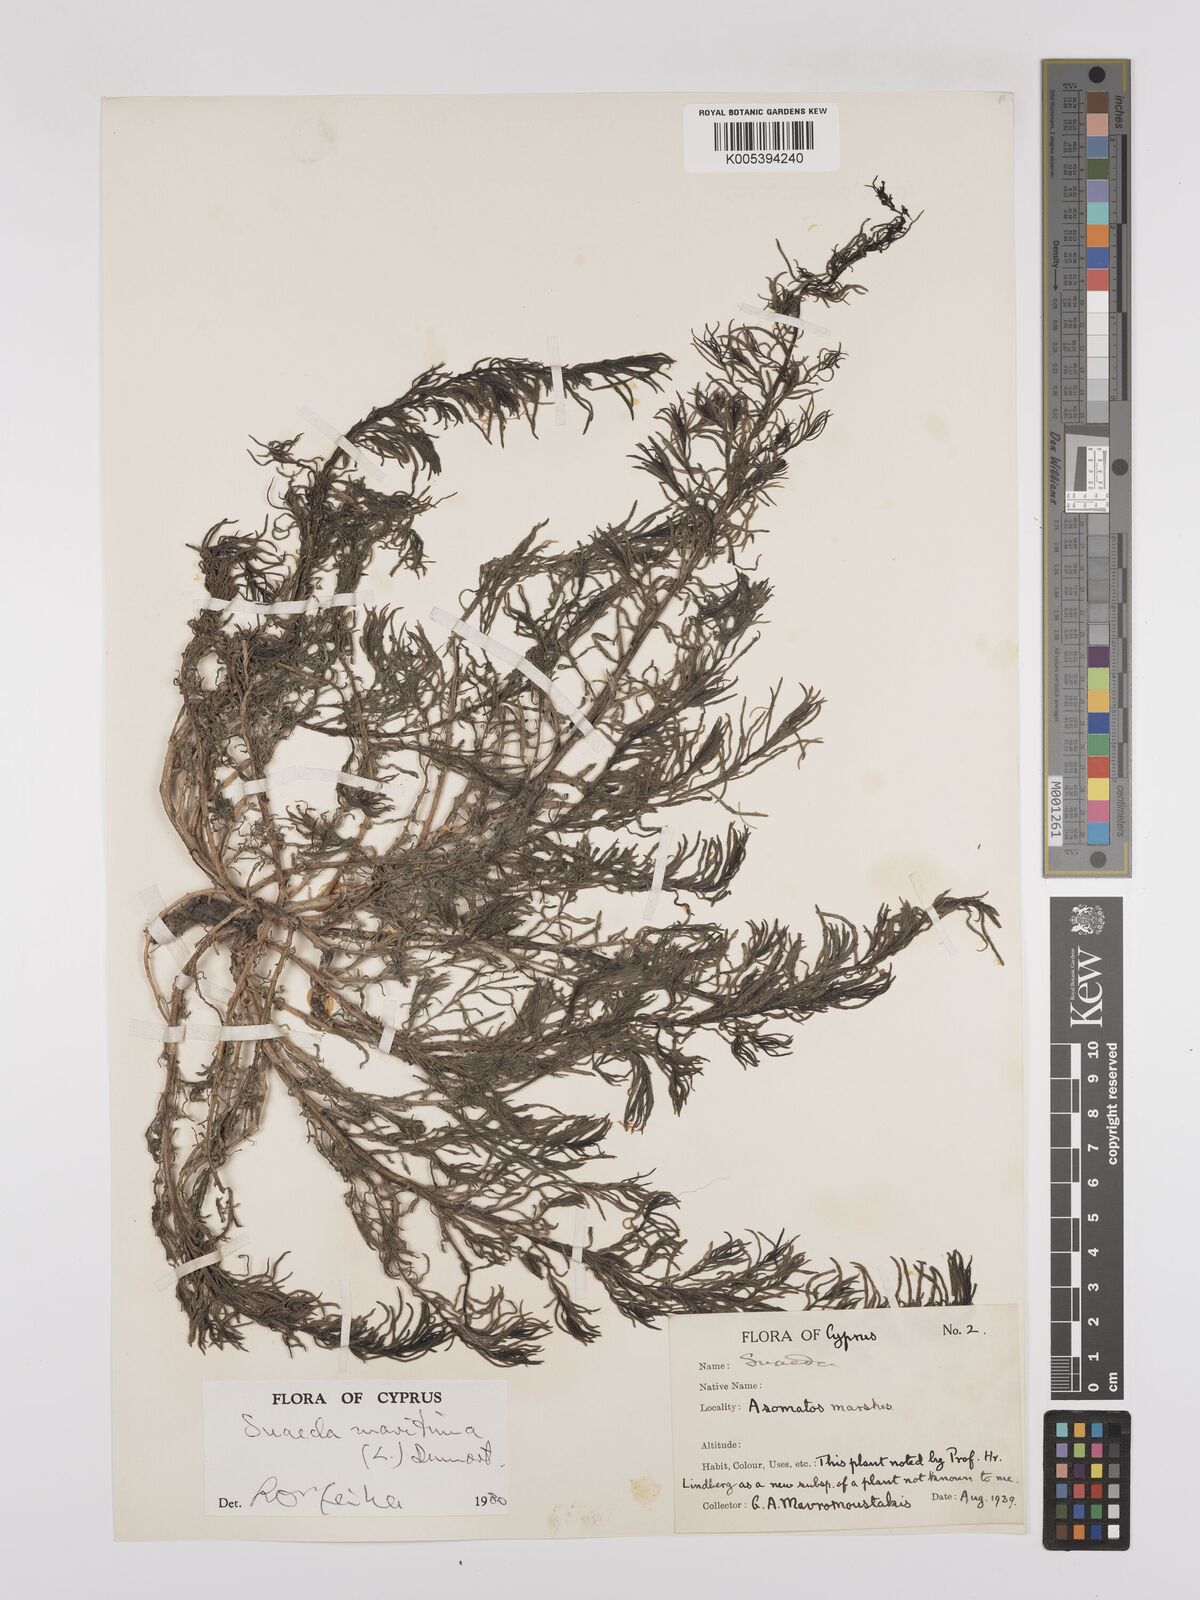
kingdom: Plantae
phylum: Tracheophyta
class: Magnoliopsida
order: Caryophyllales
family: Amaranthaceae
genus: Suaeda
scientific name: Suaeda
